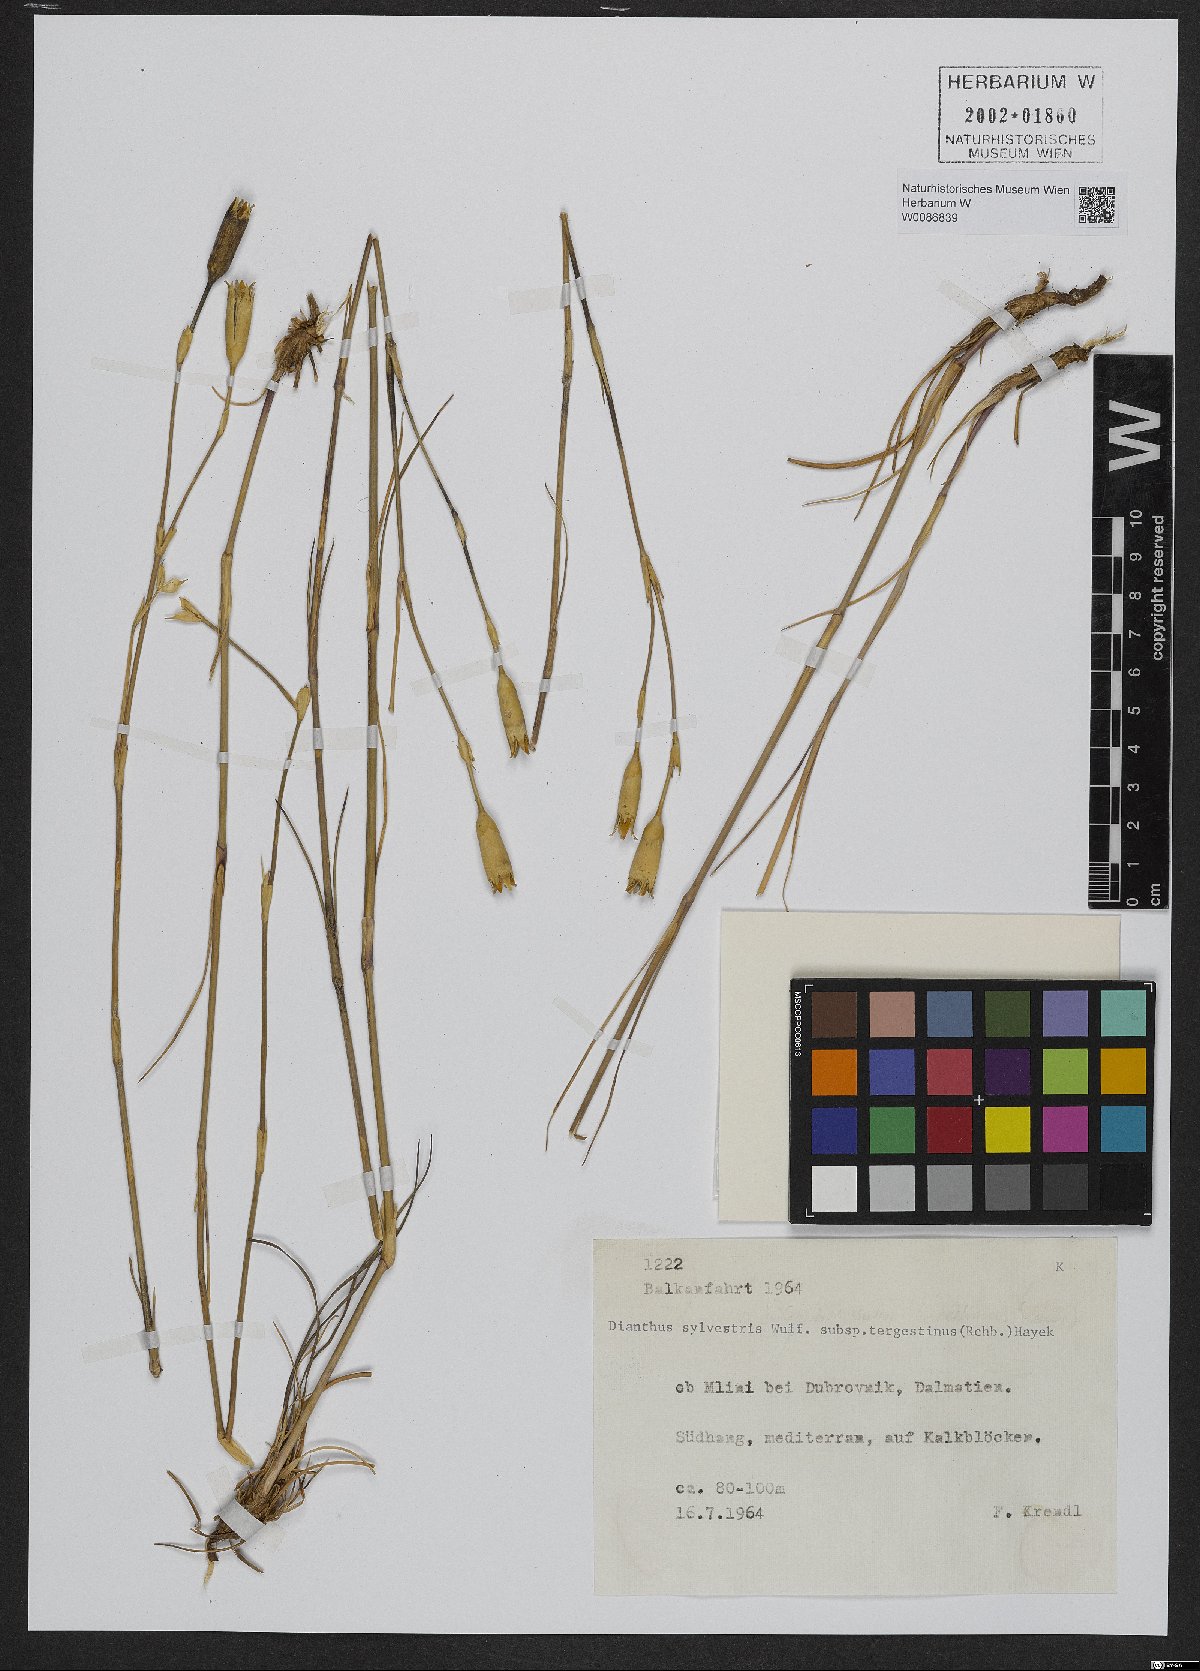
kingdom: Plantae
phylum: Tracheophyta
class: Magnoliopsida
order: Caryophyllales
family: Caryophyllaceae
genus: Dianthus
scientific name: Dianthus sylvestris
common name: Wood pink
